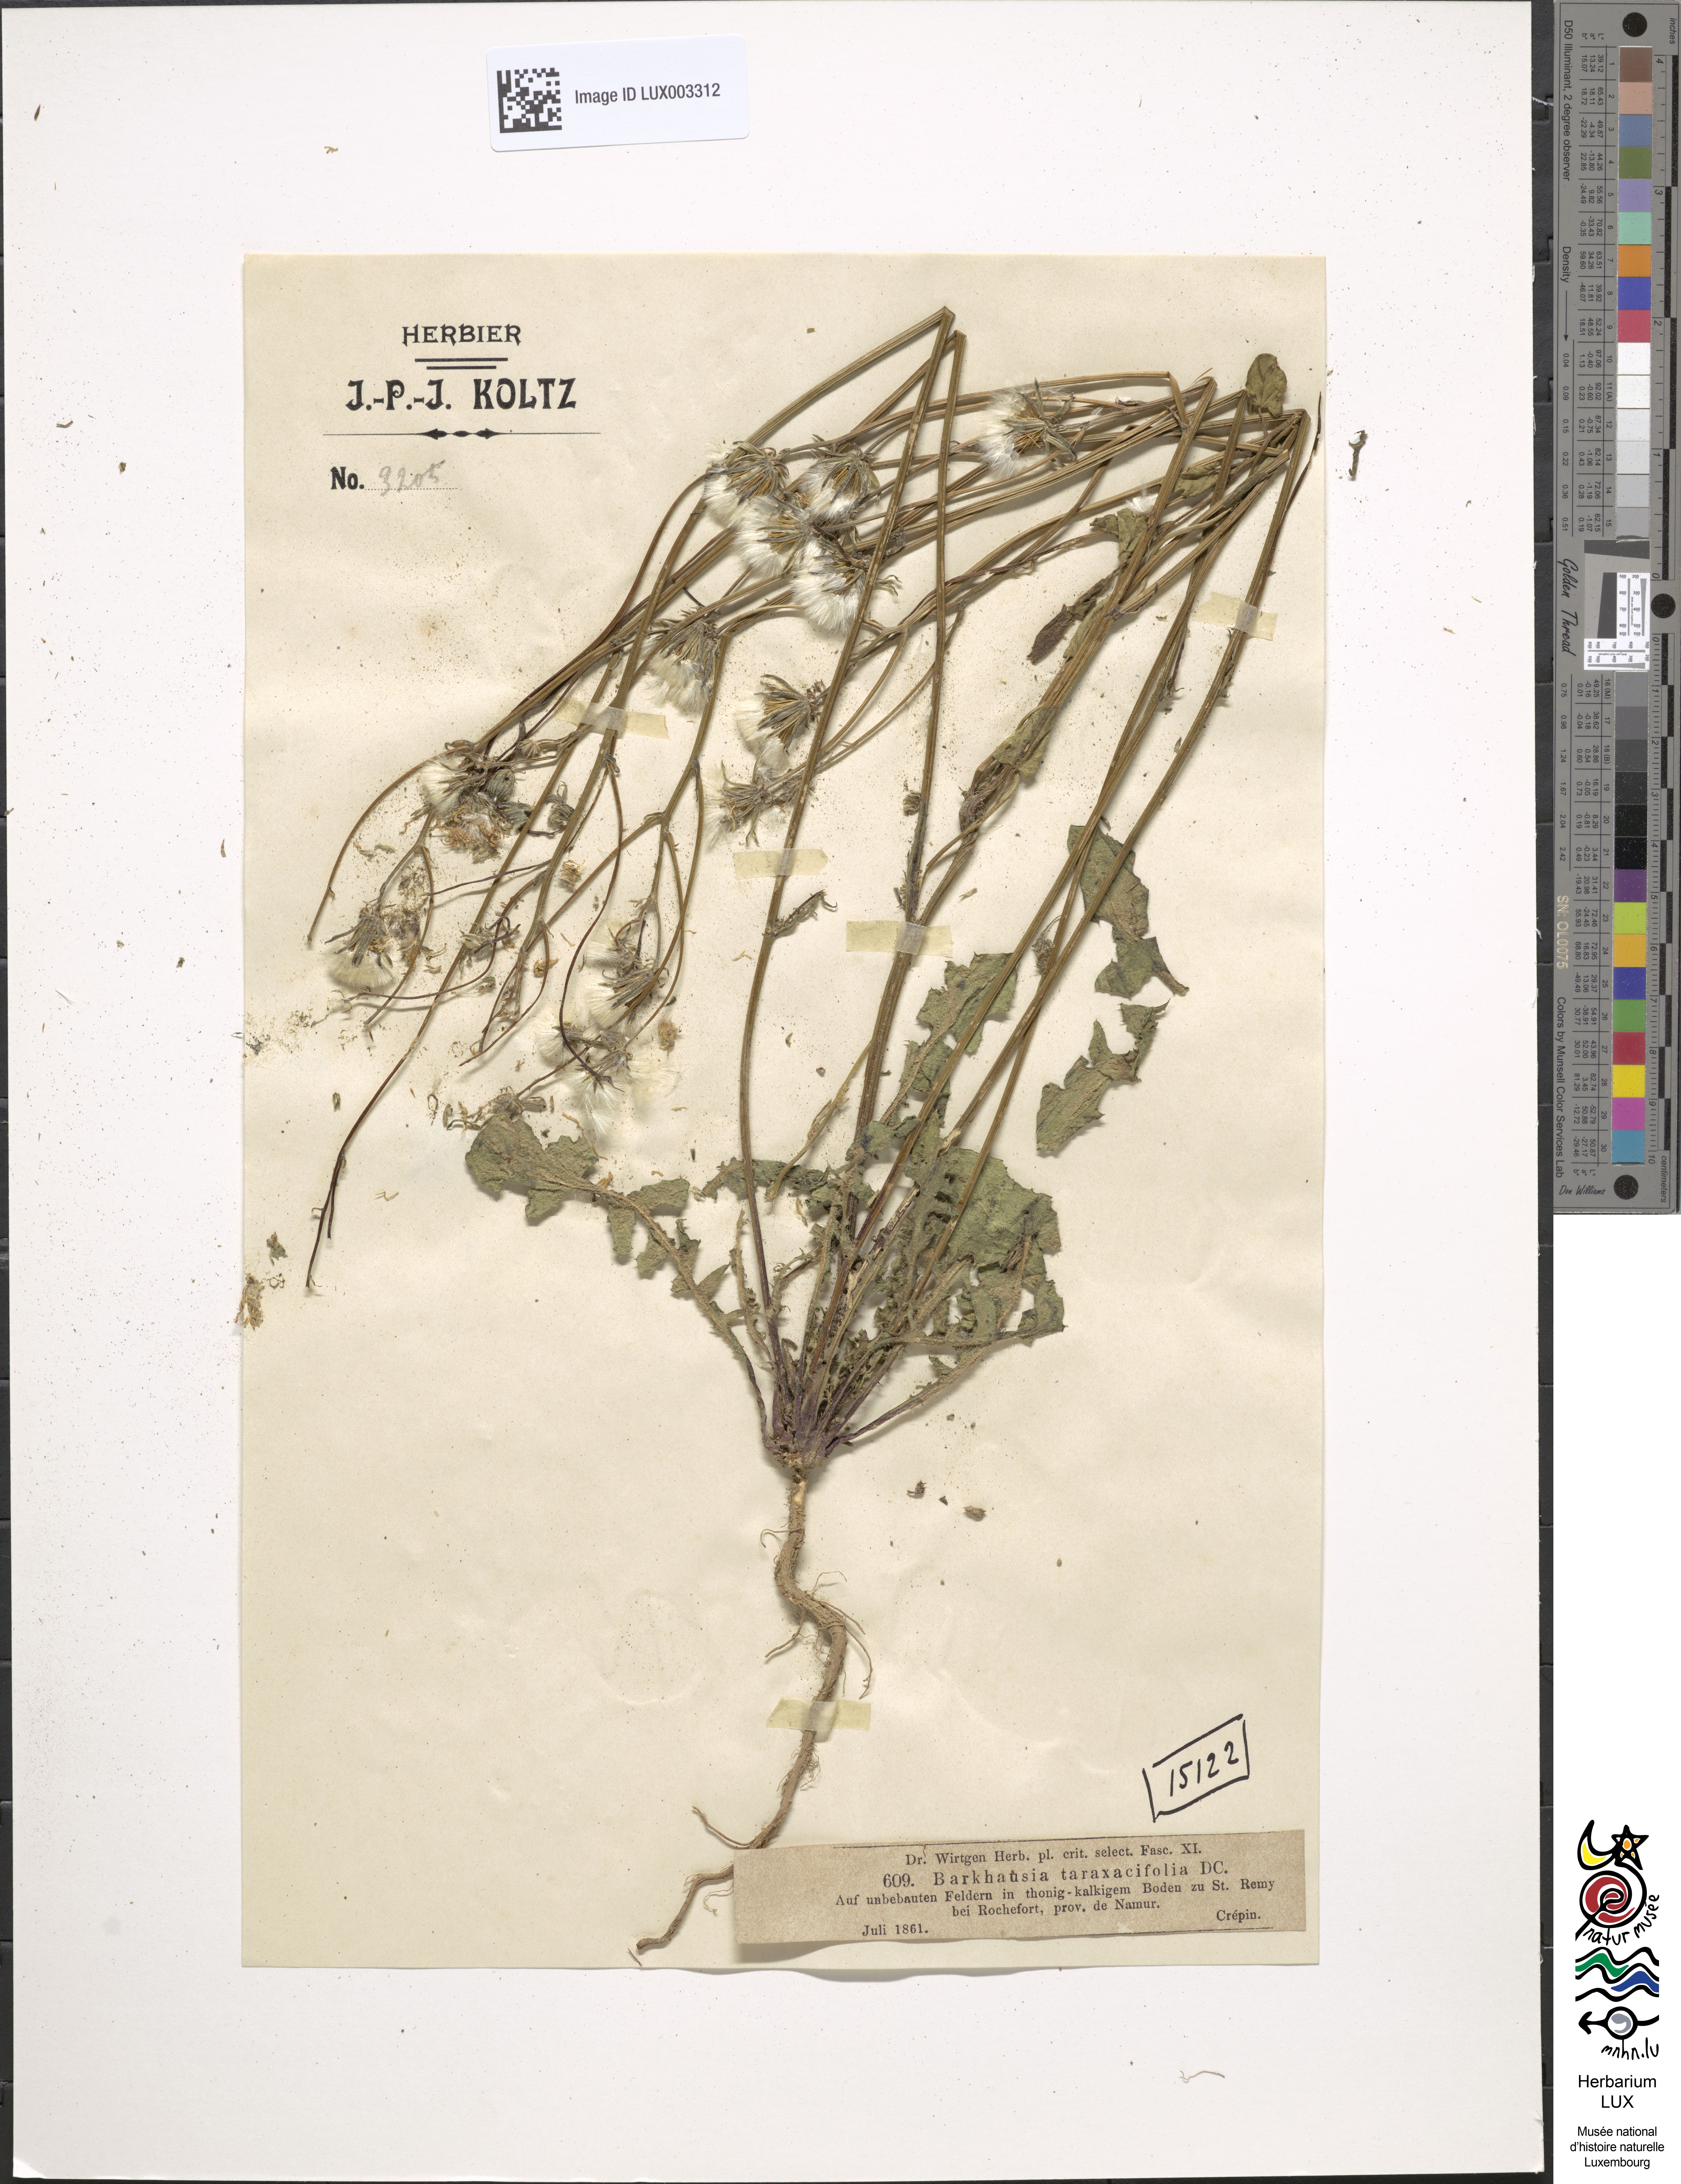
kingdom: Plantae
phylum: Tracheophyta
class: Magnoliopsida
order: Asterales
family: Asteraceae
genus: Crepis
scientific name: Crepis vesicaria
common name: Beaked hawksbeard
